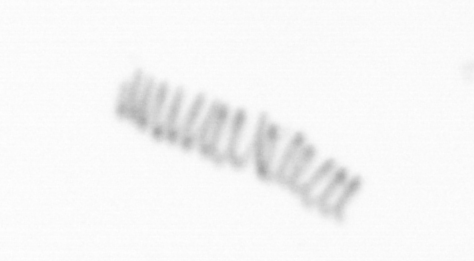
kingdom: Chromista
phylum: Ochrophyta
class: Bacillariophyceae
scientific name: Bacillariophyceae
